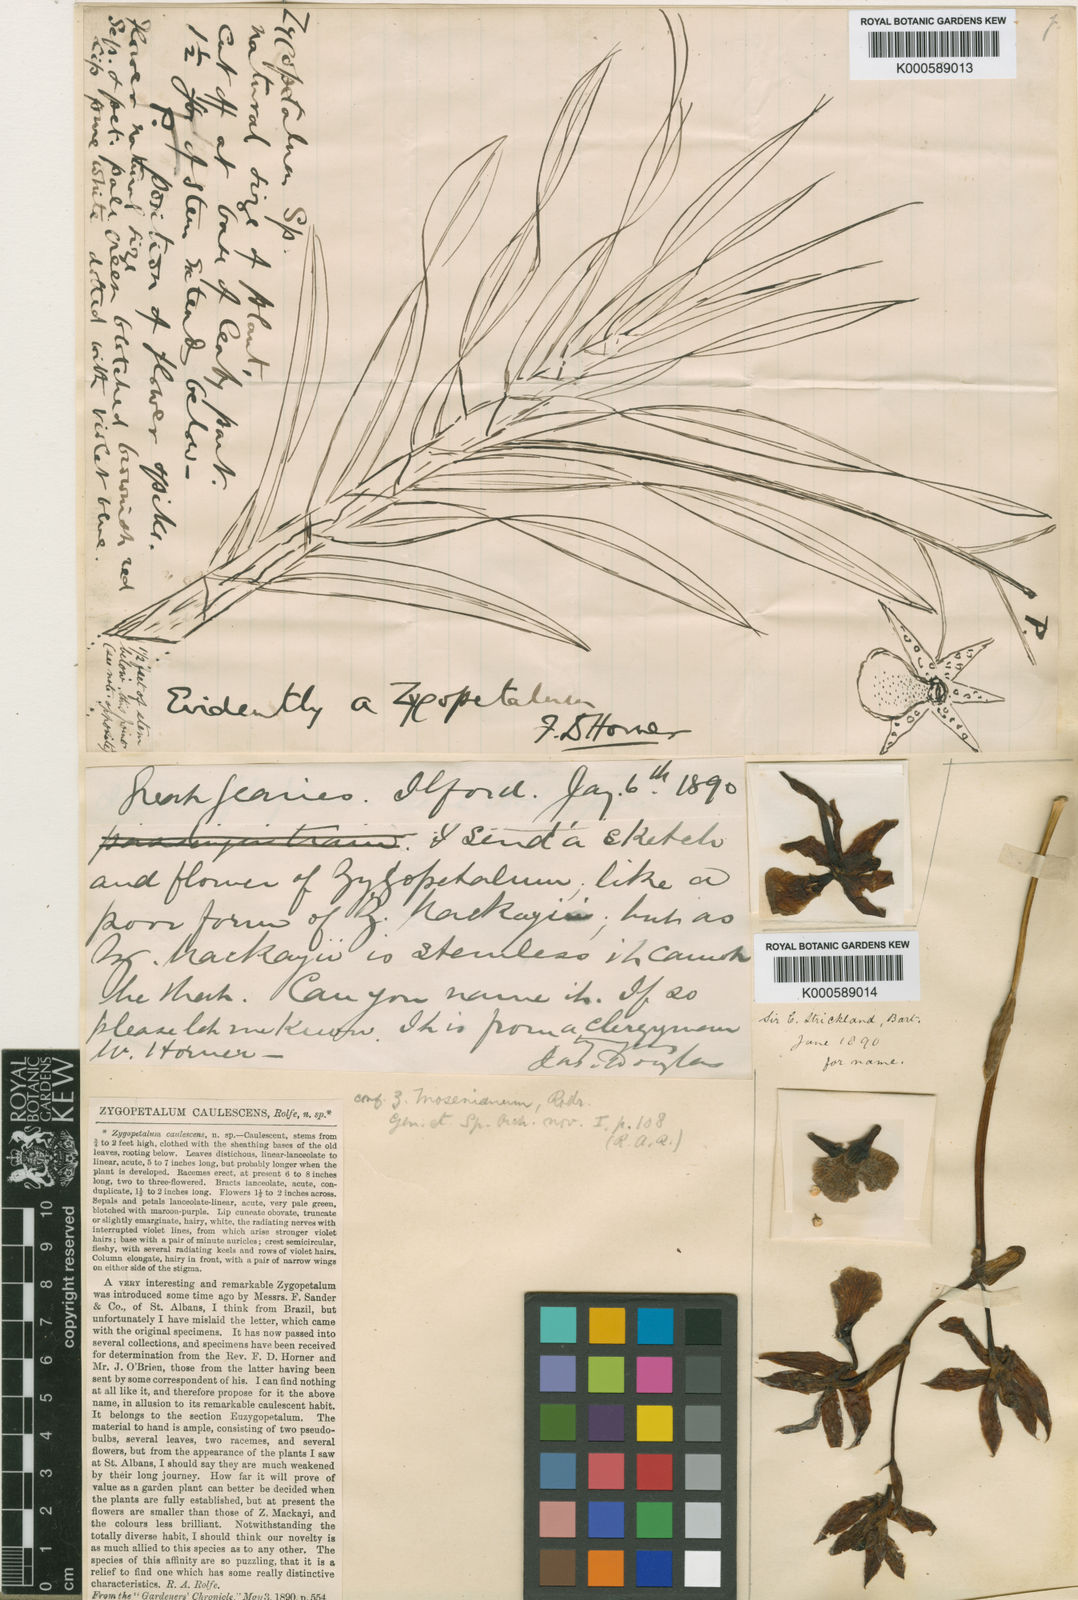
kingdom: Plantae
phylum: Tracheophyta
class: Liliopsida
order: Asparagales
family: Orchidaceae
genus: Zygopetalum
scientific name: Zygopetalum mosenianum
